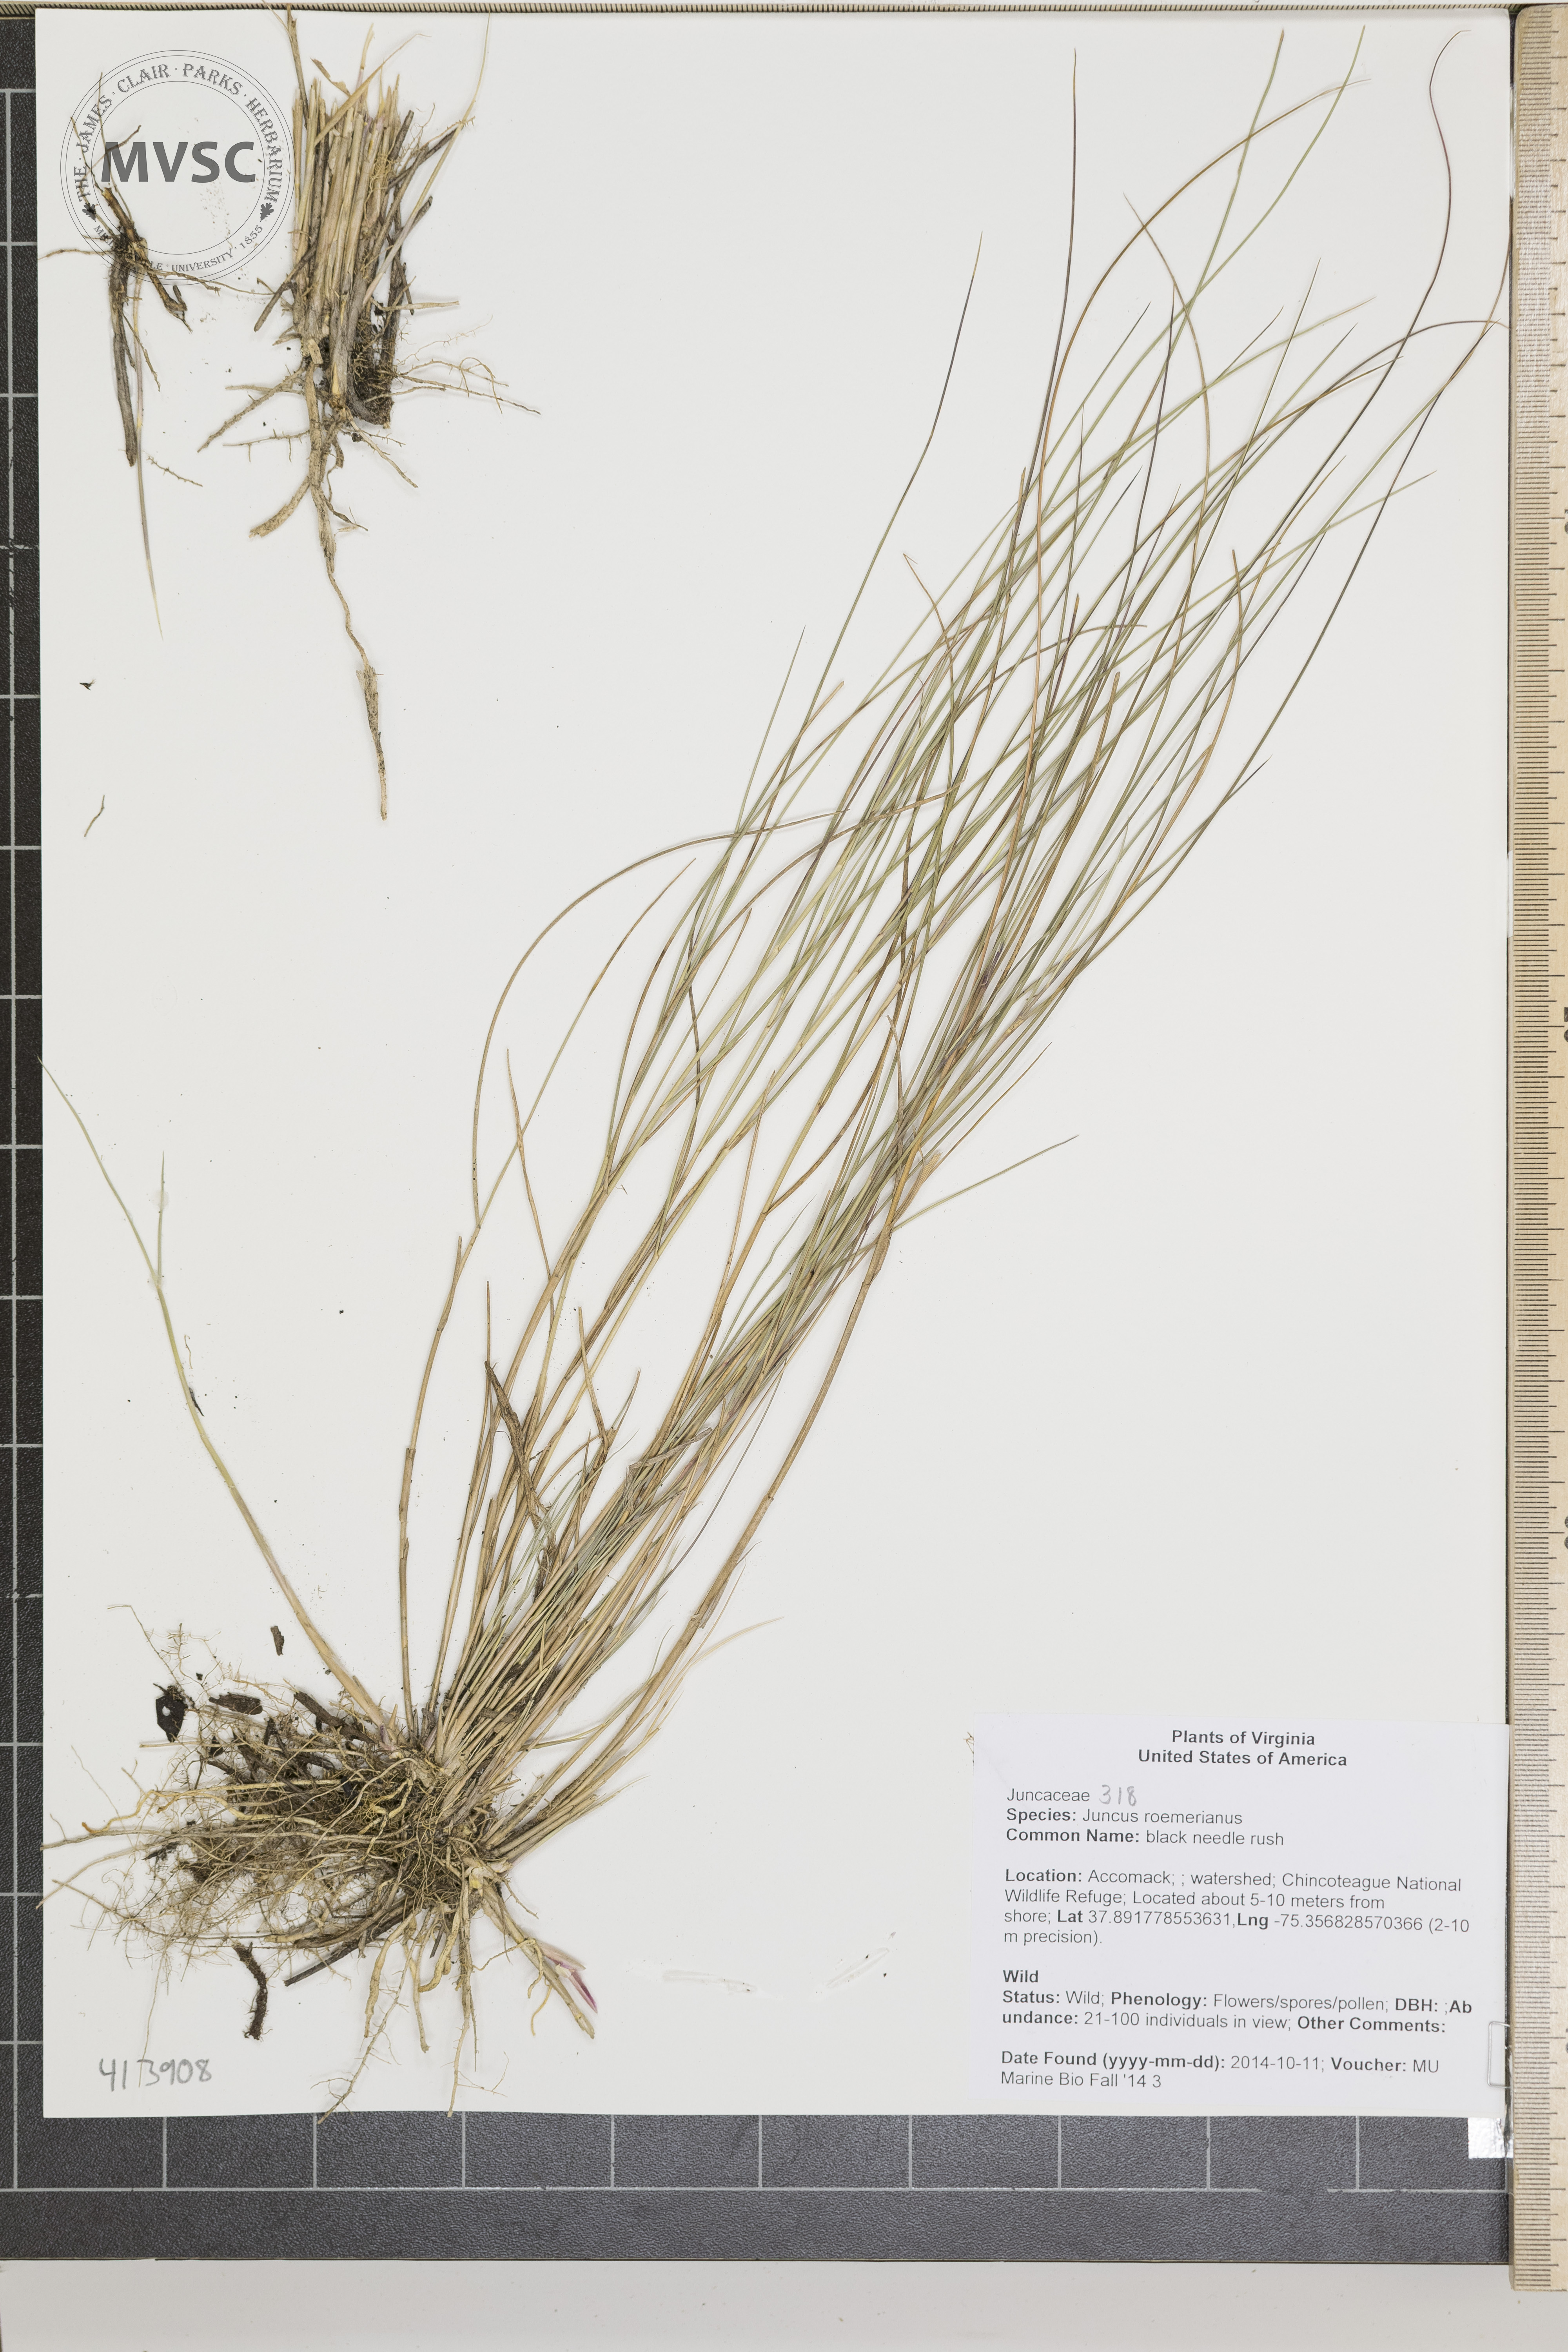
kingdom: Plantae
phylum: Tracheophyta
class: Liliopsida
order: Poales
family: Juncaceae
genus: Juncus
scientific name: Juncus roemerianus
